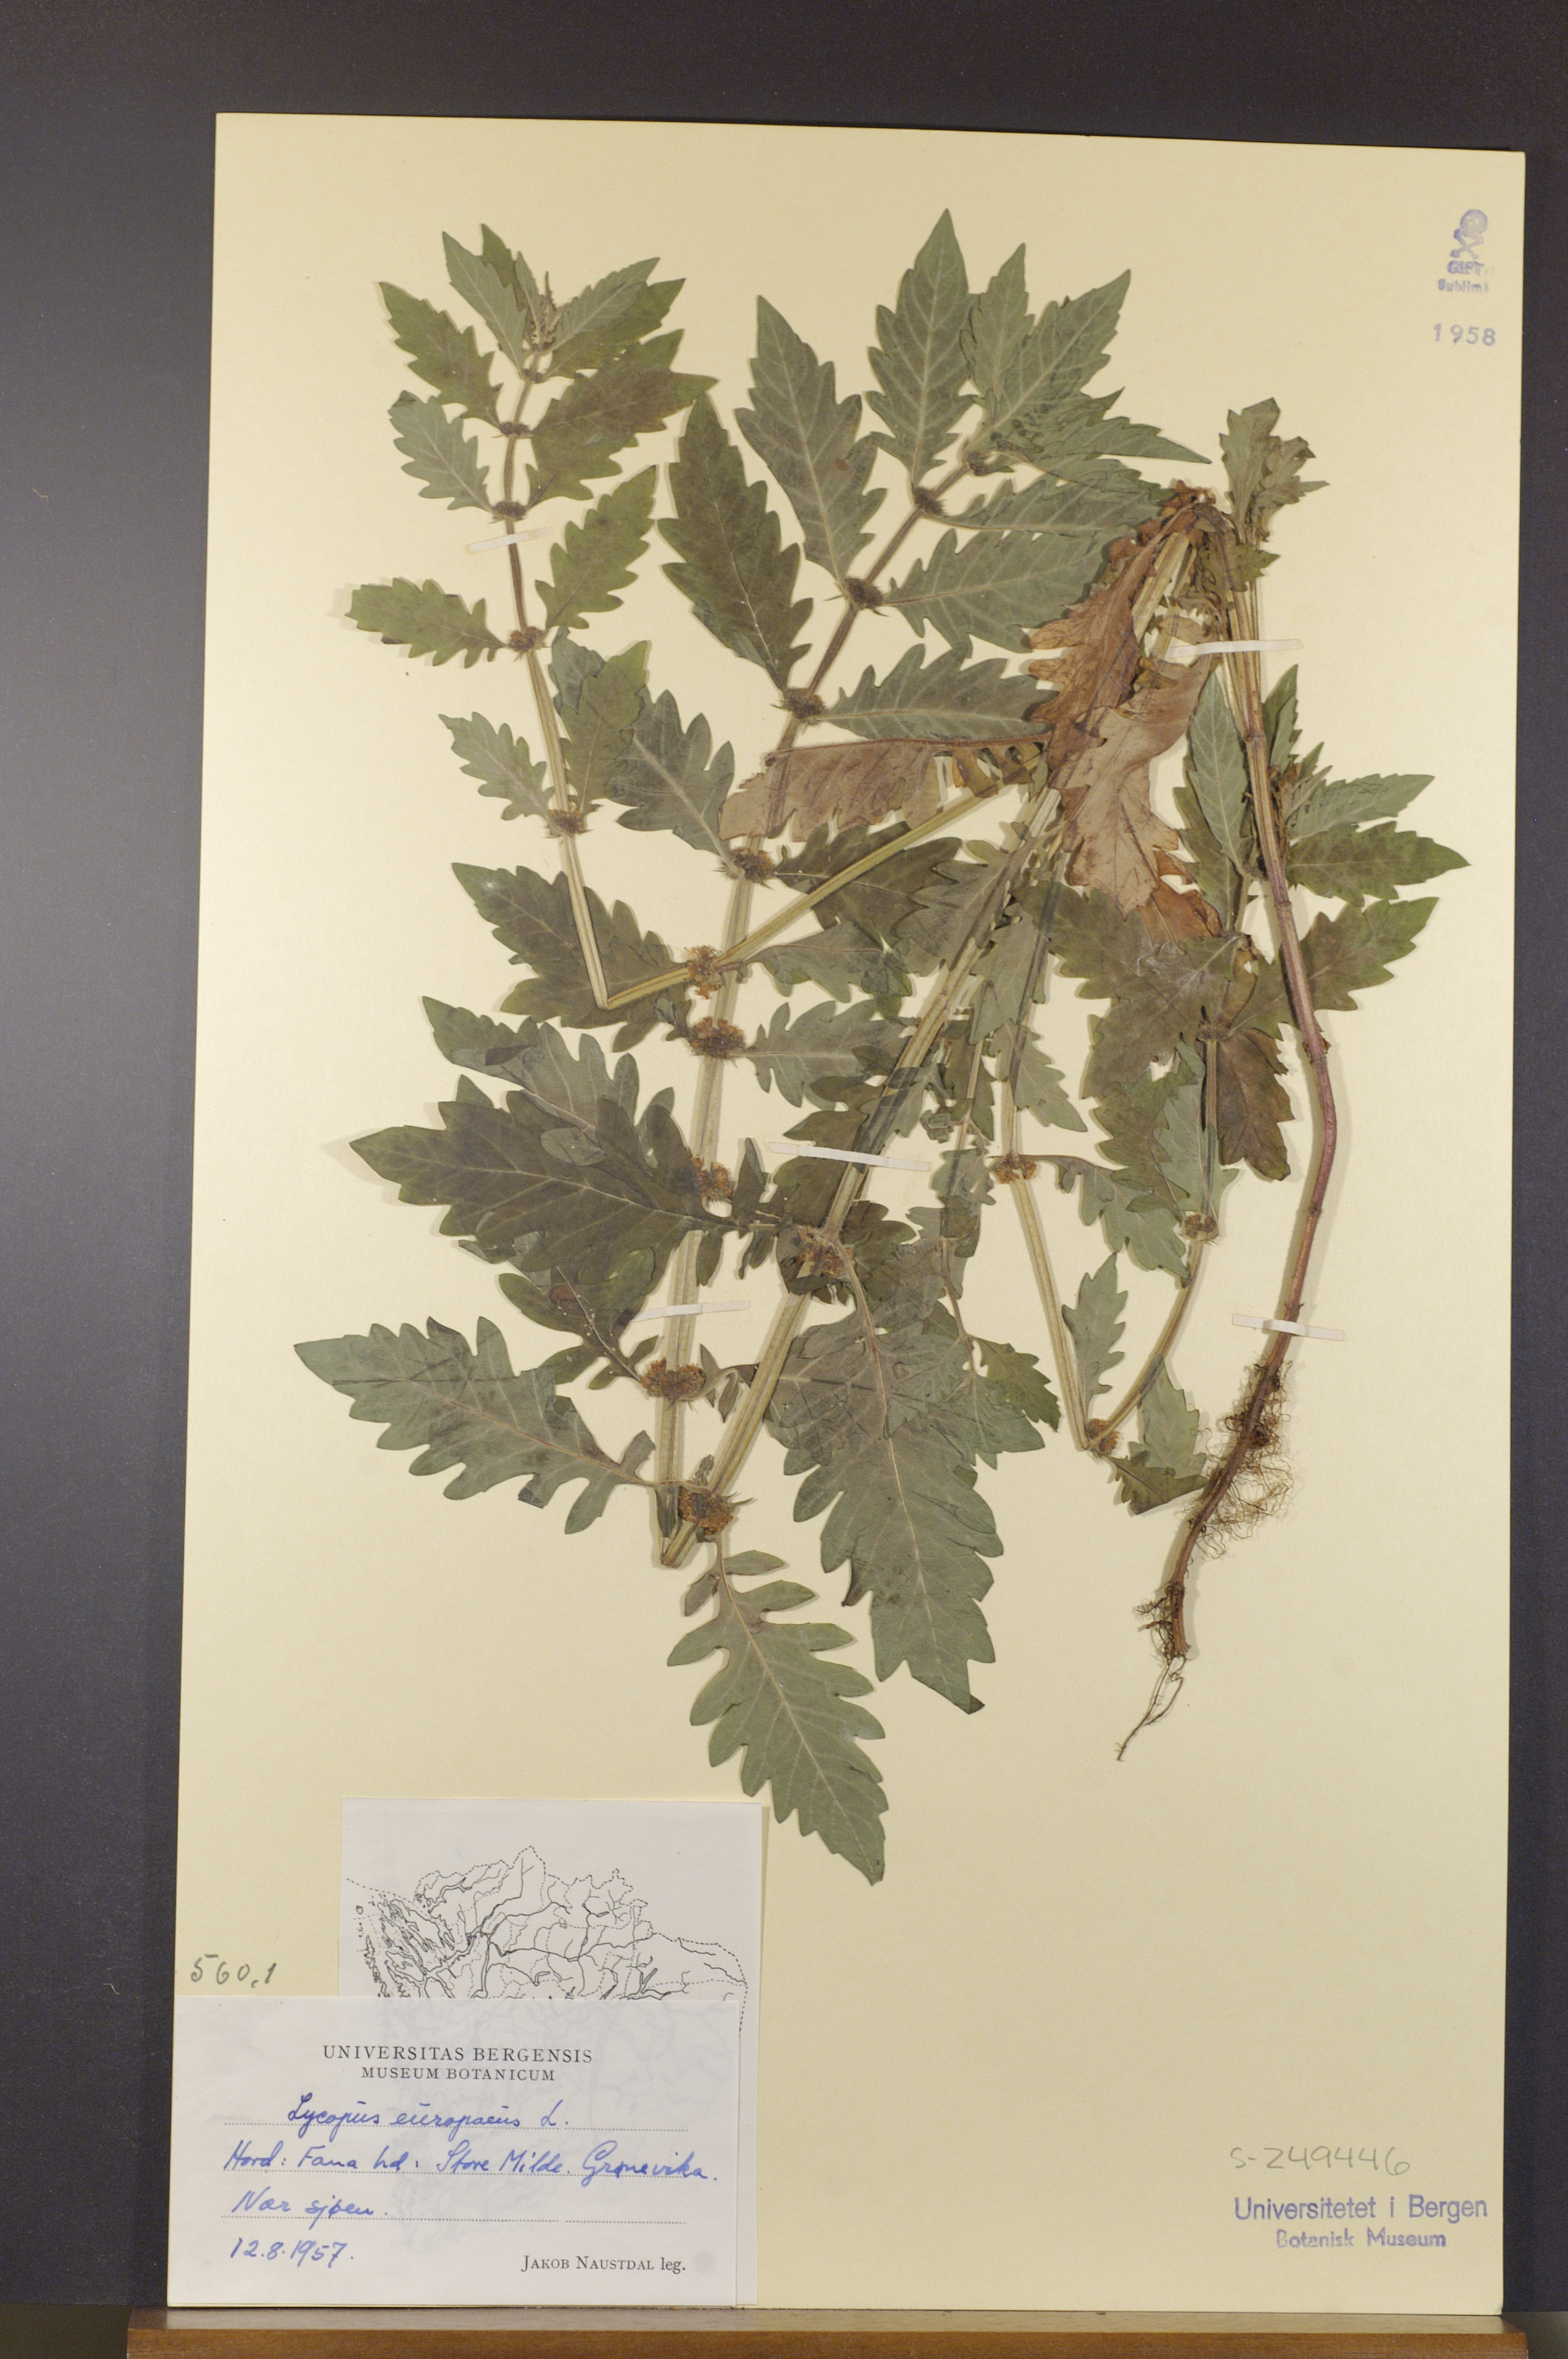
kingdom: Plantae
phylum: Tracheophyta
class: Magnoliopsida
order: Lamiales
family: Lamiaceae
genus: Lycopus
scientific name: Lycopus europaeus
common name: European bugleweed
